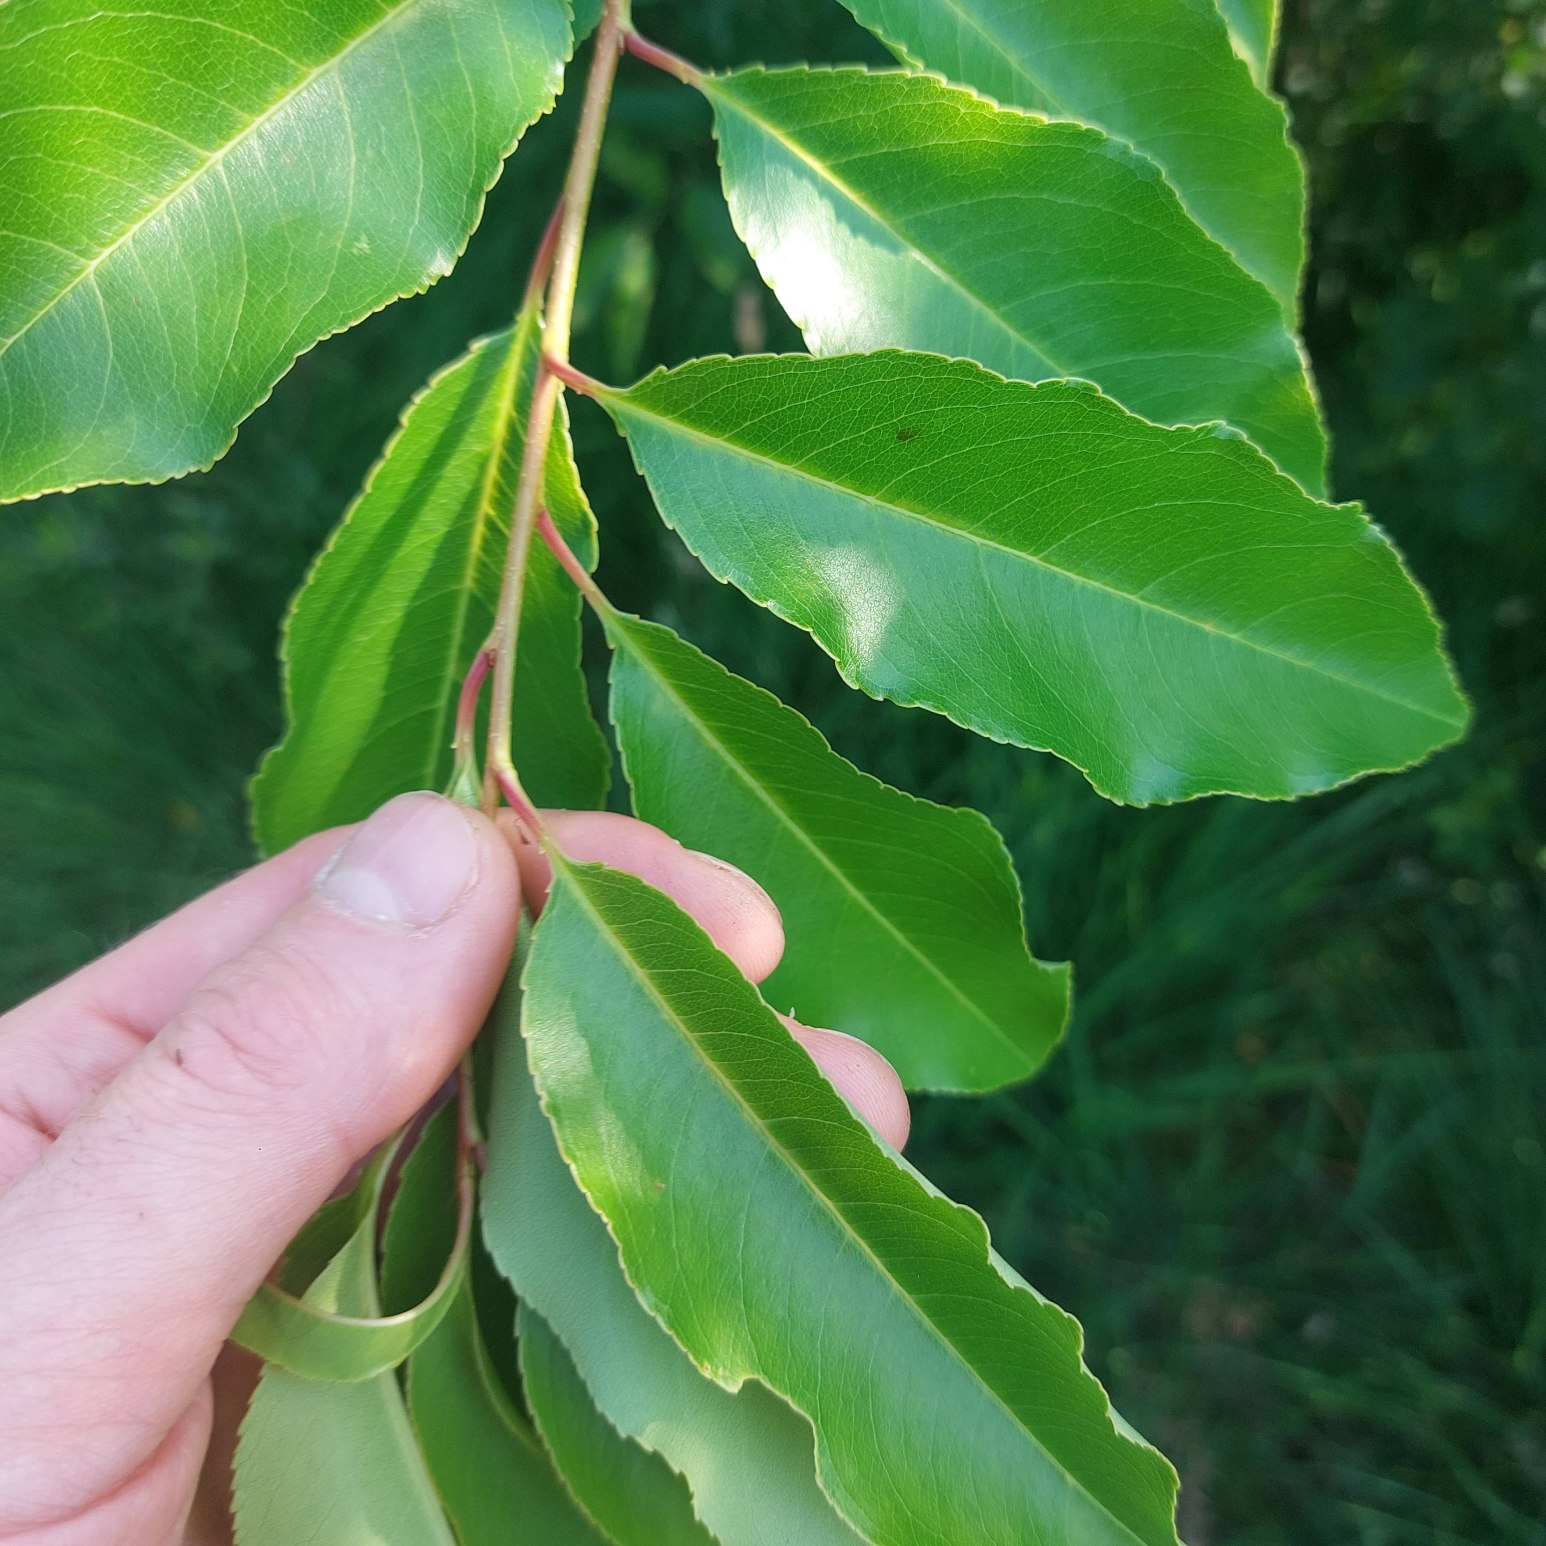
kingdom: Plantae
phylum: Tracheophyta
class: Magnoliopsida
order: Rosales
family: Rosaceae
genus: Prunus
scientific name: Prunus serotina
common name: Glansbladet hæg
